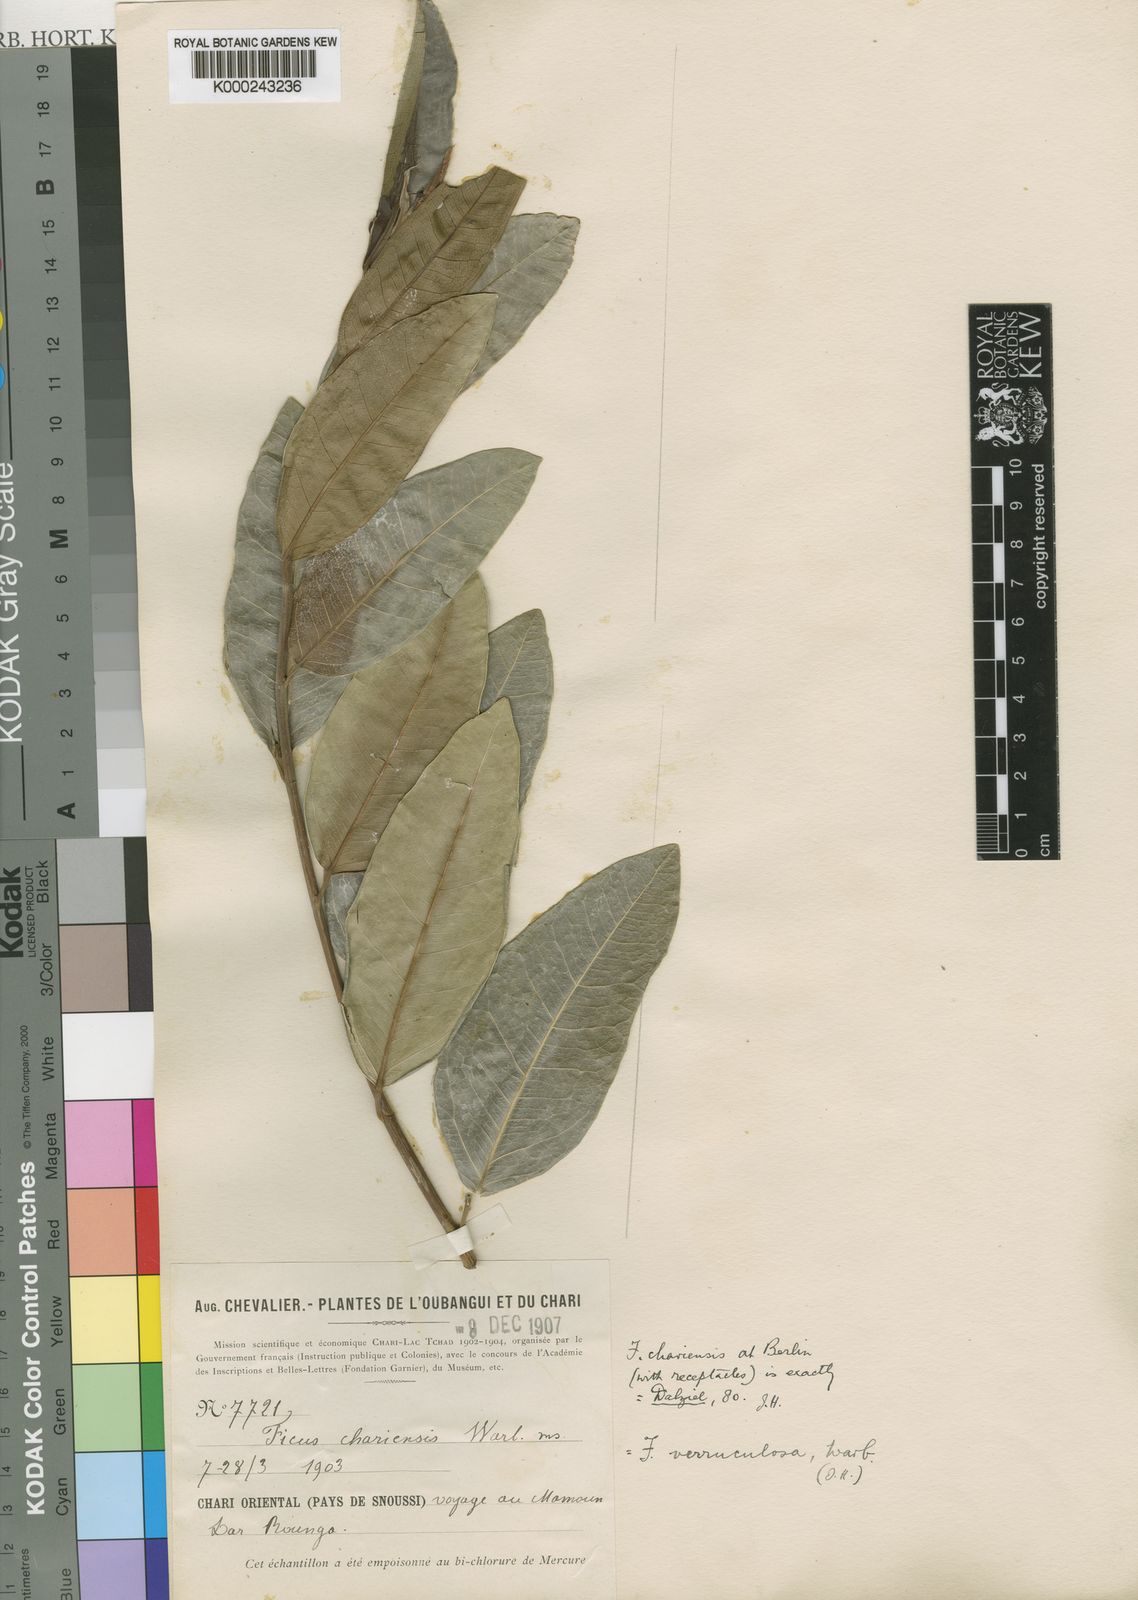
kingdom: Plantae
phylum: Tracheophyta
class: Magnoliopsida
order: Rosales
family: Moraceae
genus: Ficus
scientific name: Ficus verruculosa
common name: Water fig
